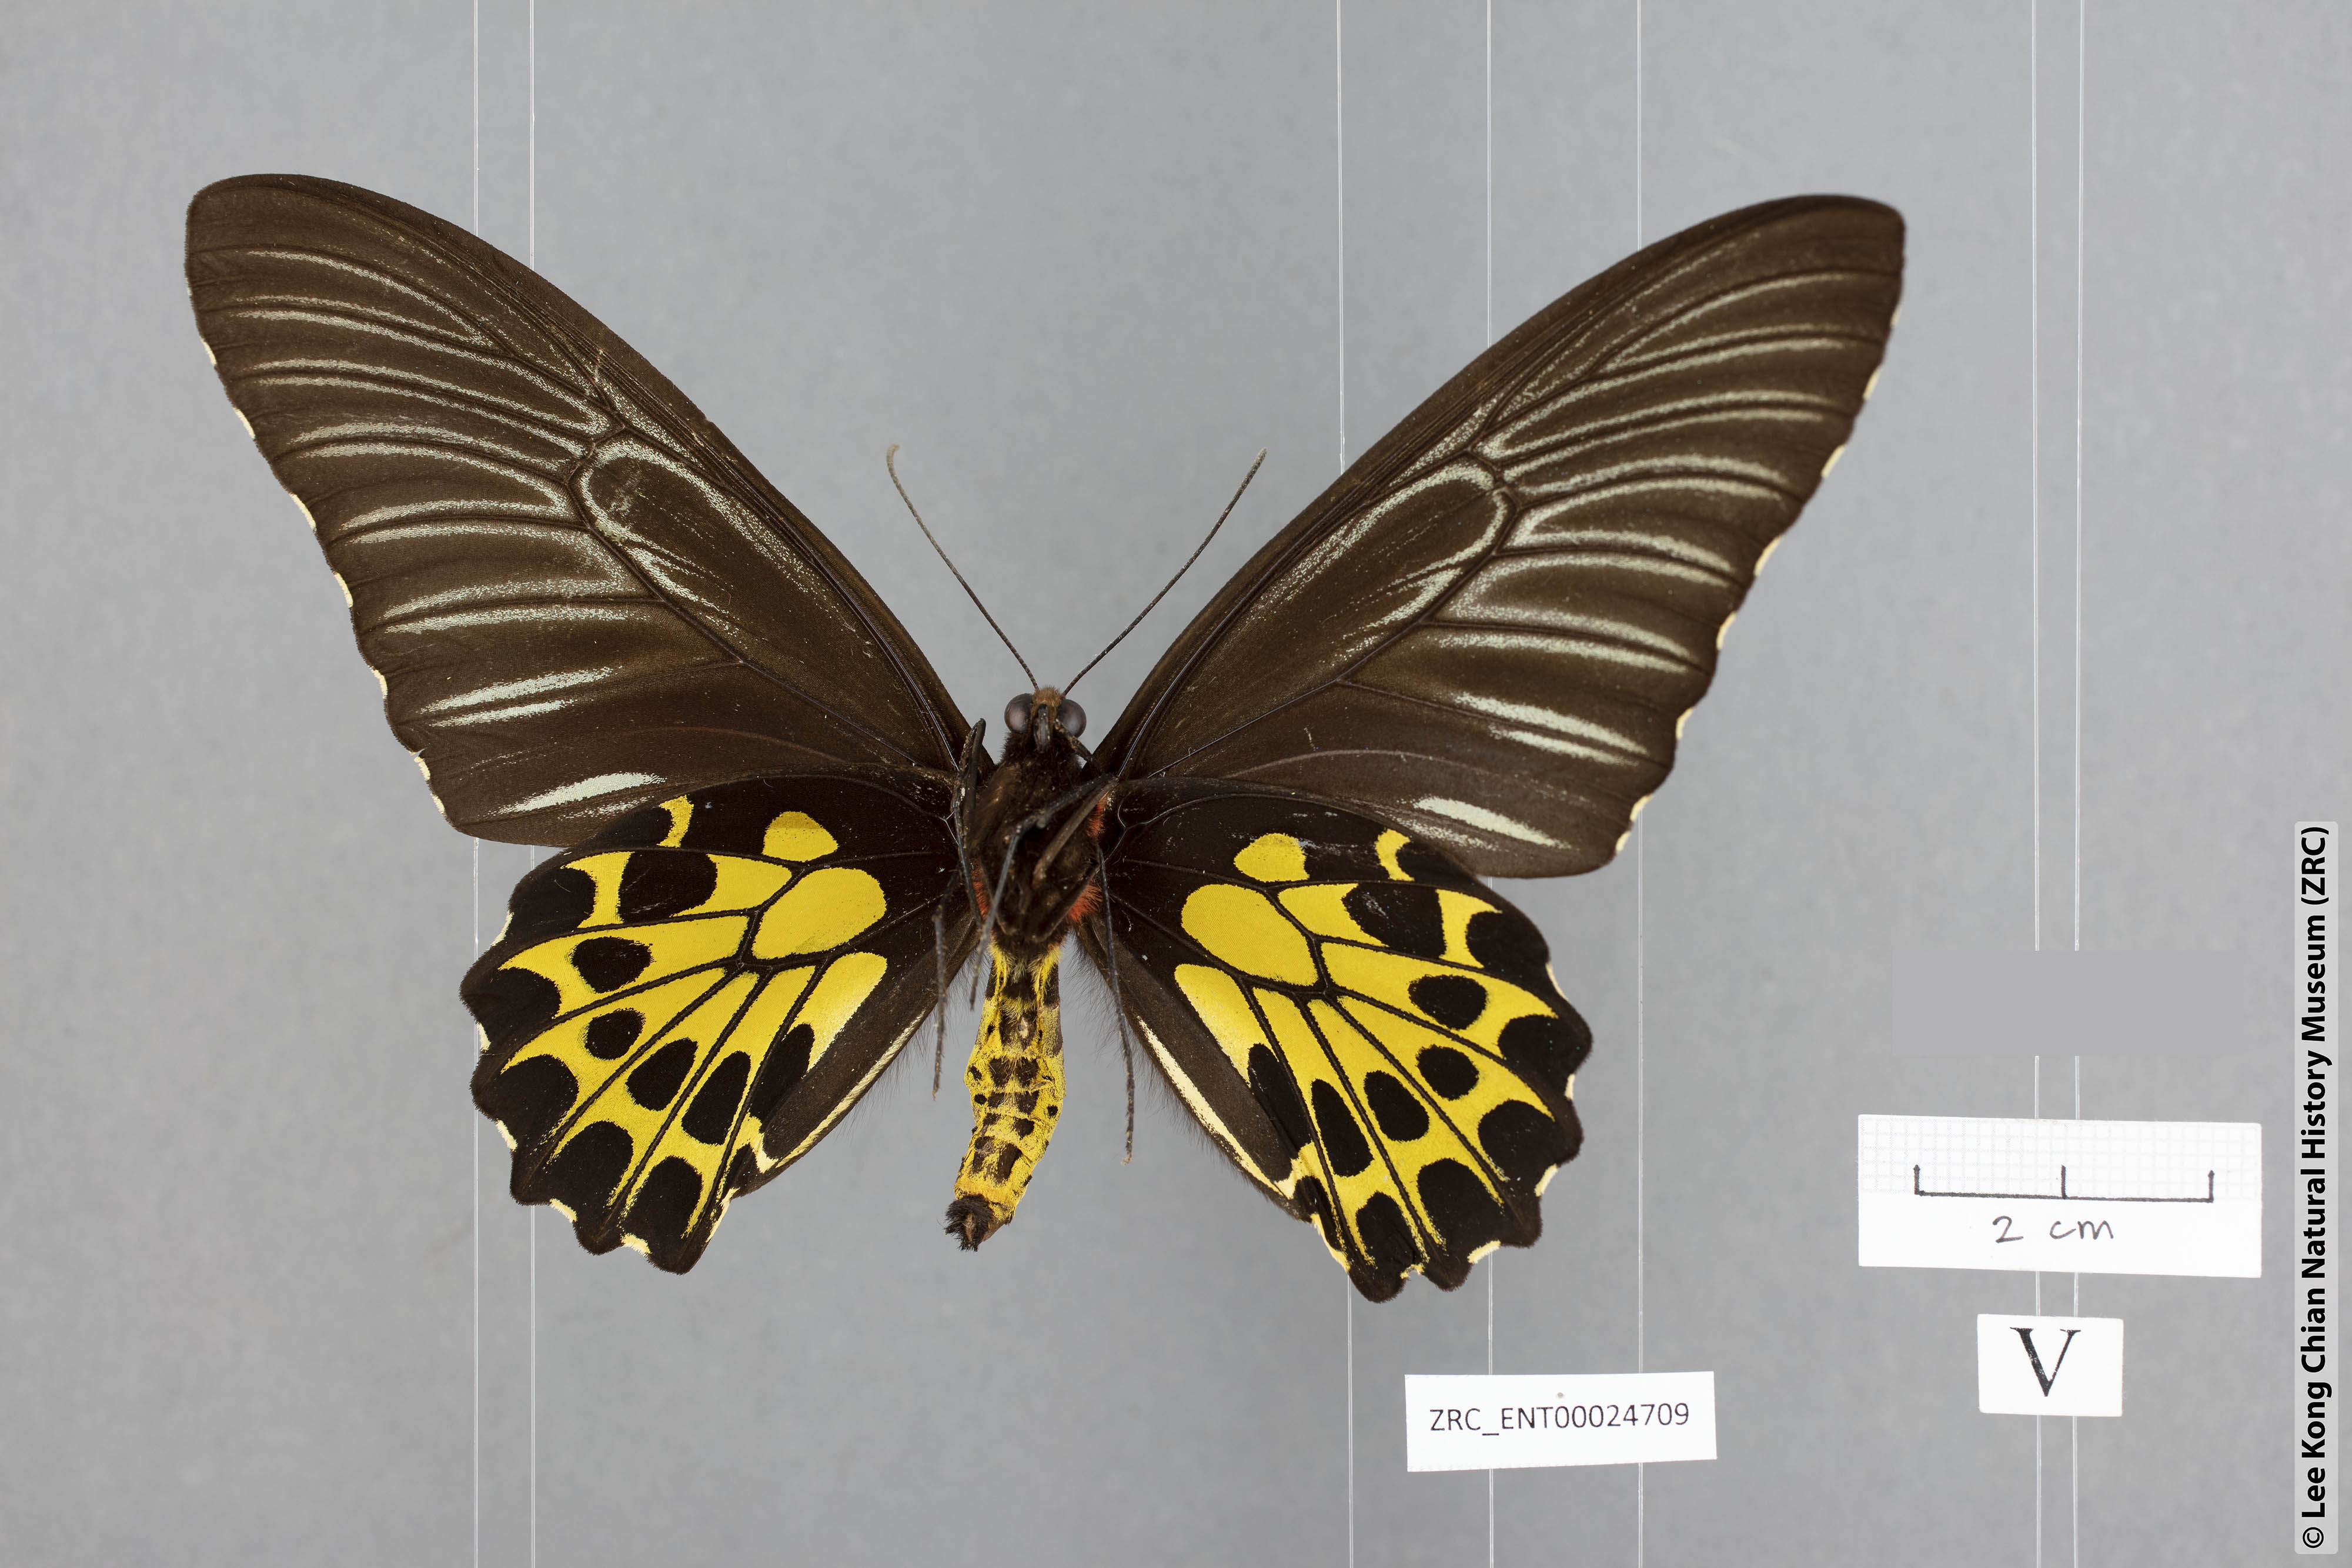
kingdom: Animalia
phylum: Arthropoda
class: Insecta
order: Lepidoptera
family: Papilionidae
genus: Troides
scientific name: Troides aeacus
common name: Golden birdwing
